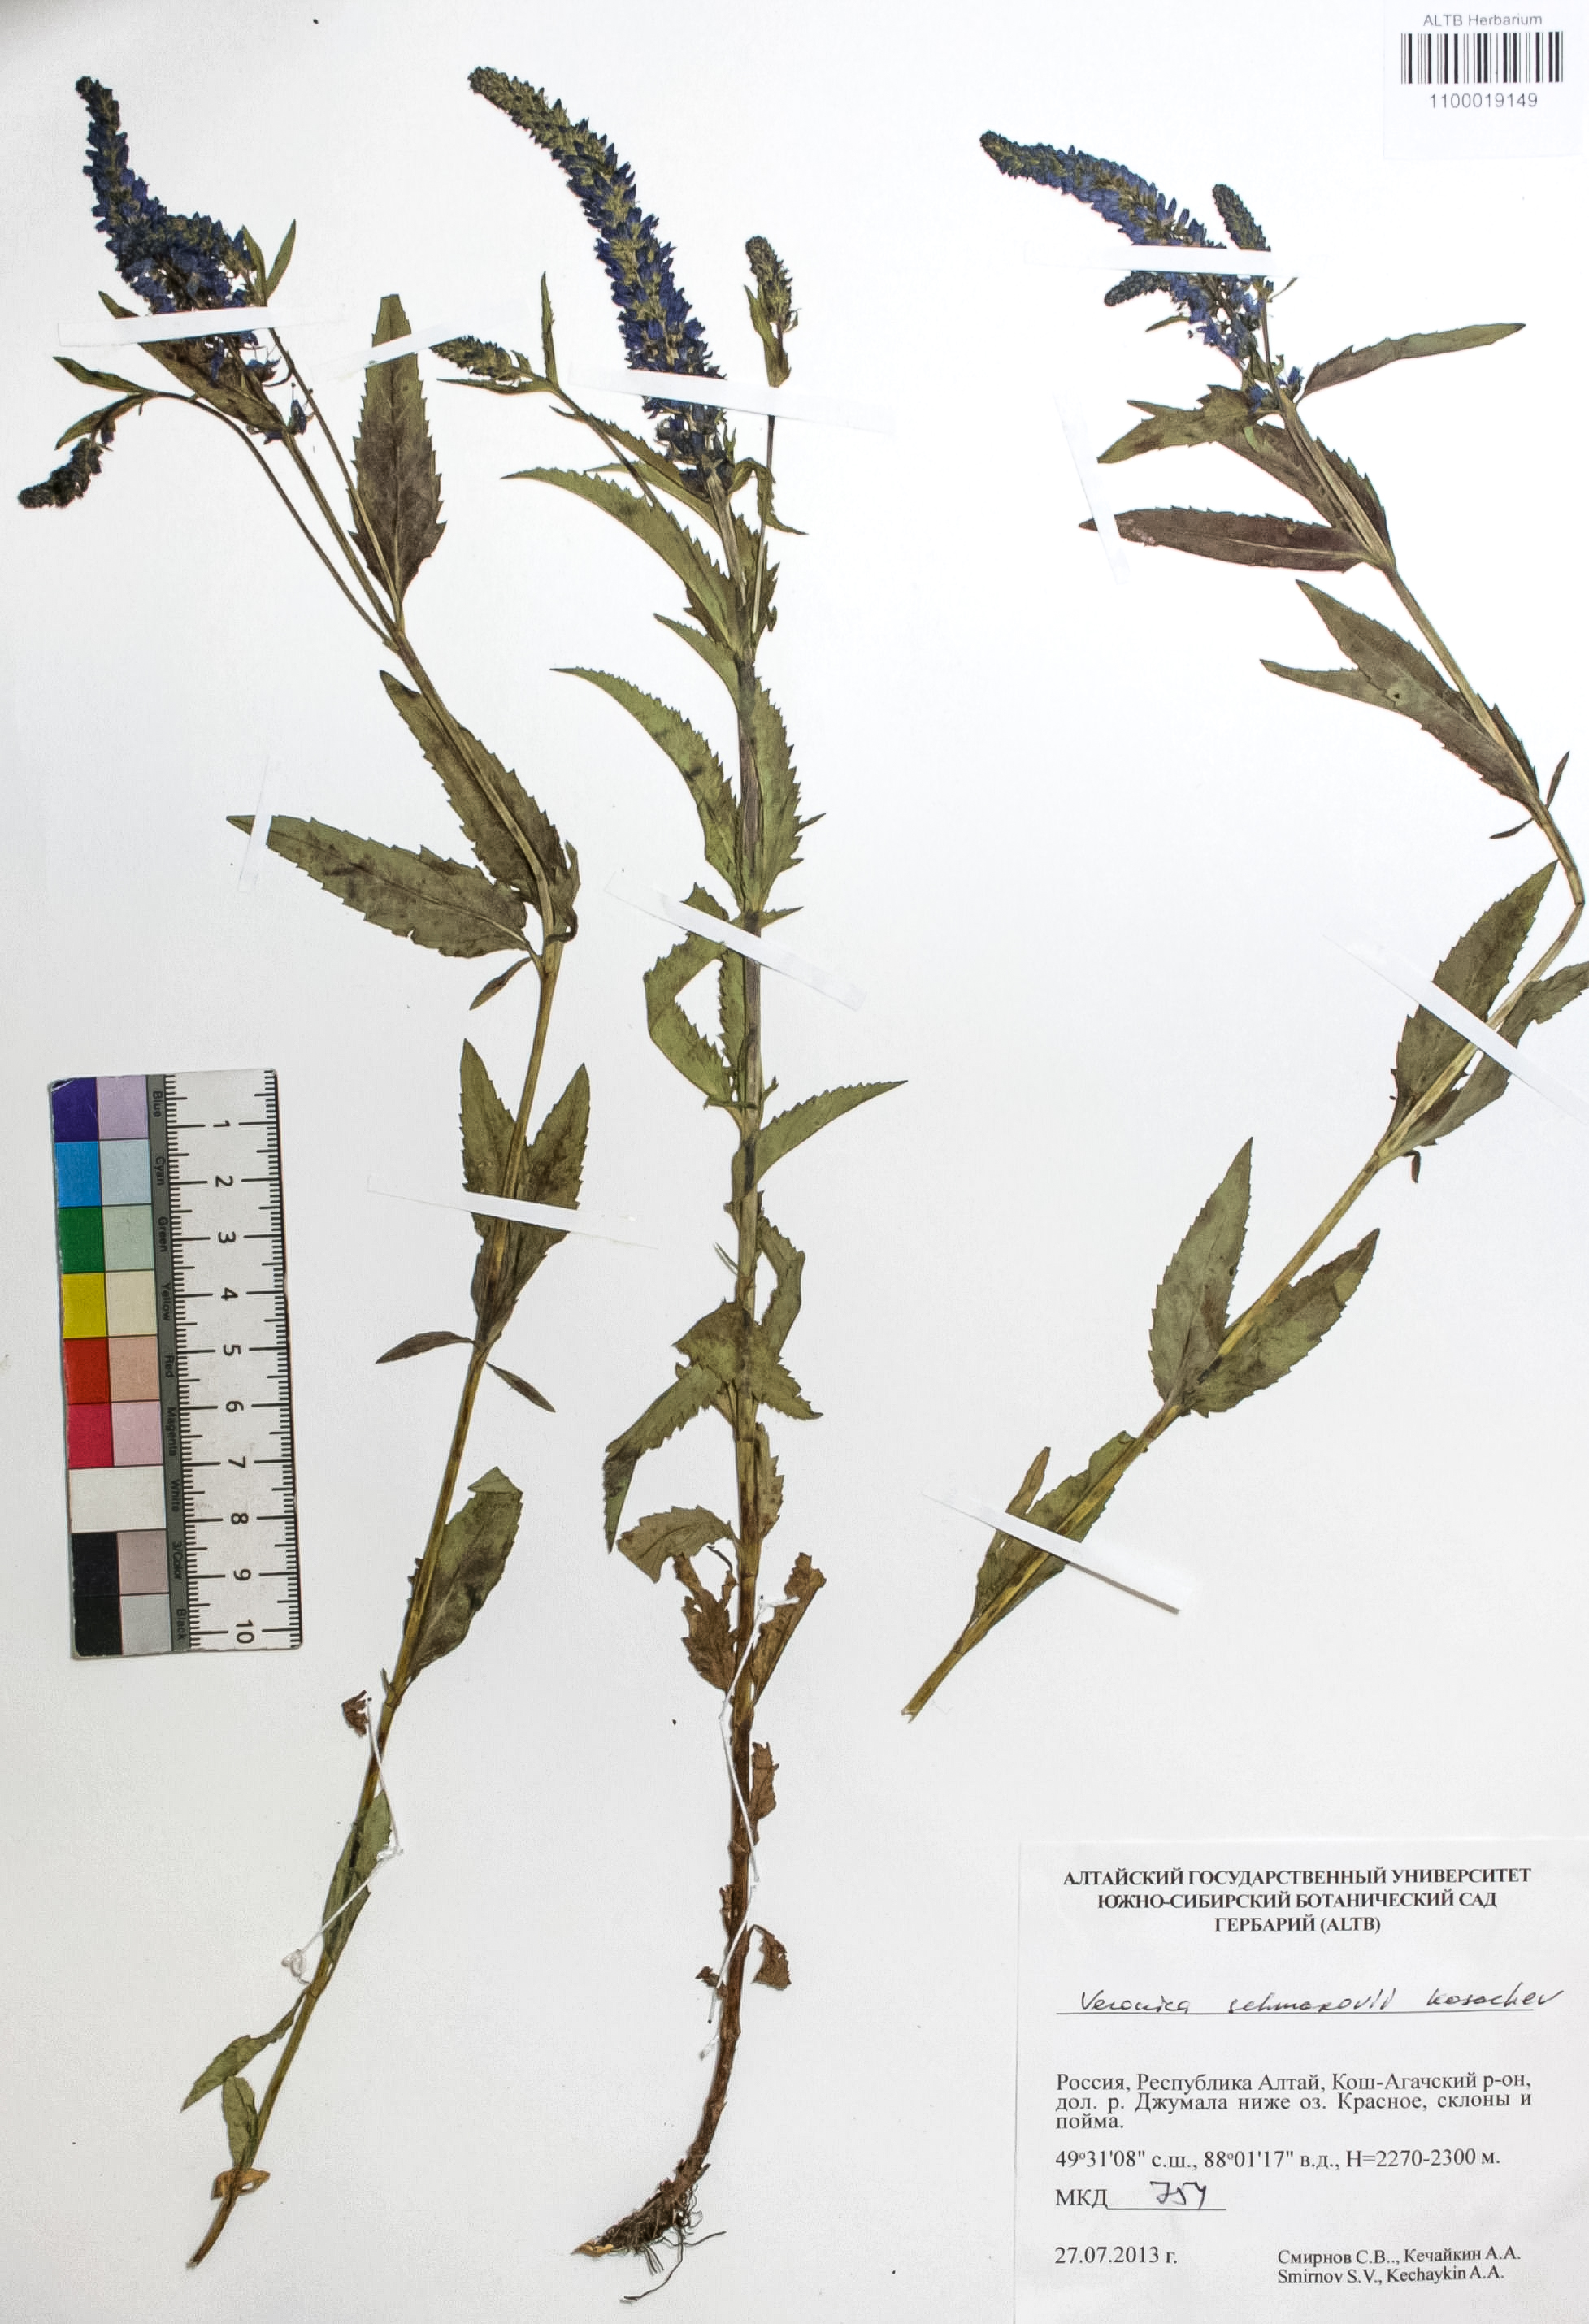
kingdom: Plantae
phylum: Tracheophyta
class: Magnoliopsida
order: Lamiales
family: Plantaginaceae
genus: Veronica
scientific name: Veronica schmakovii
